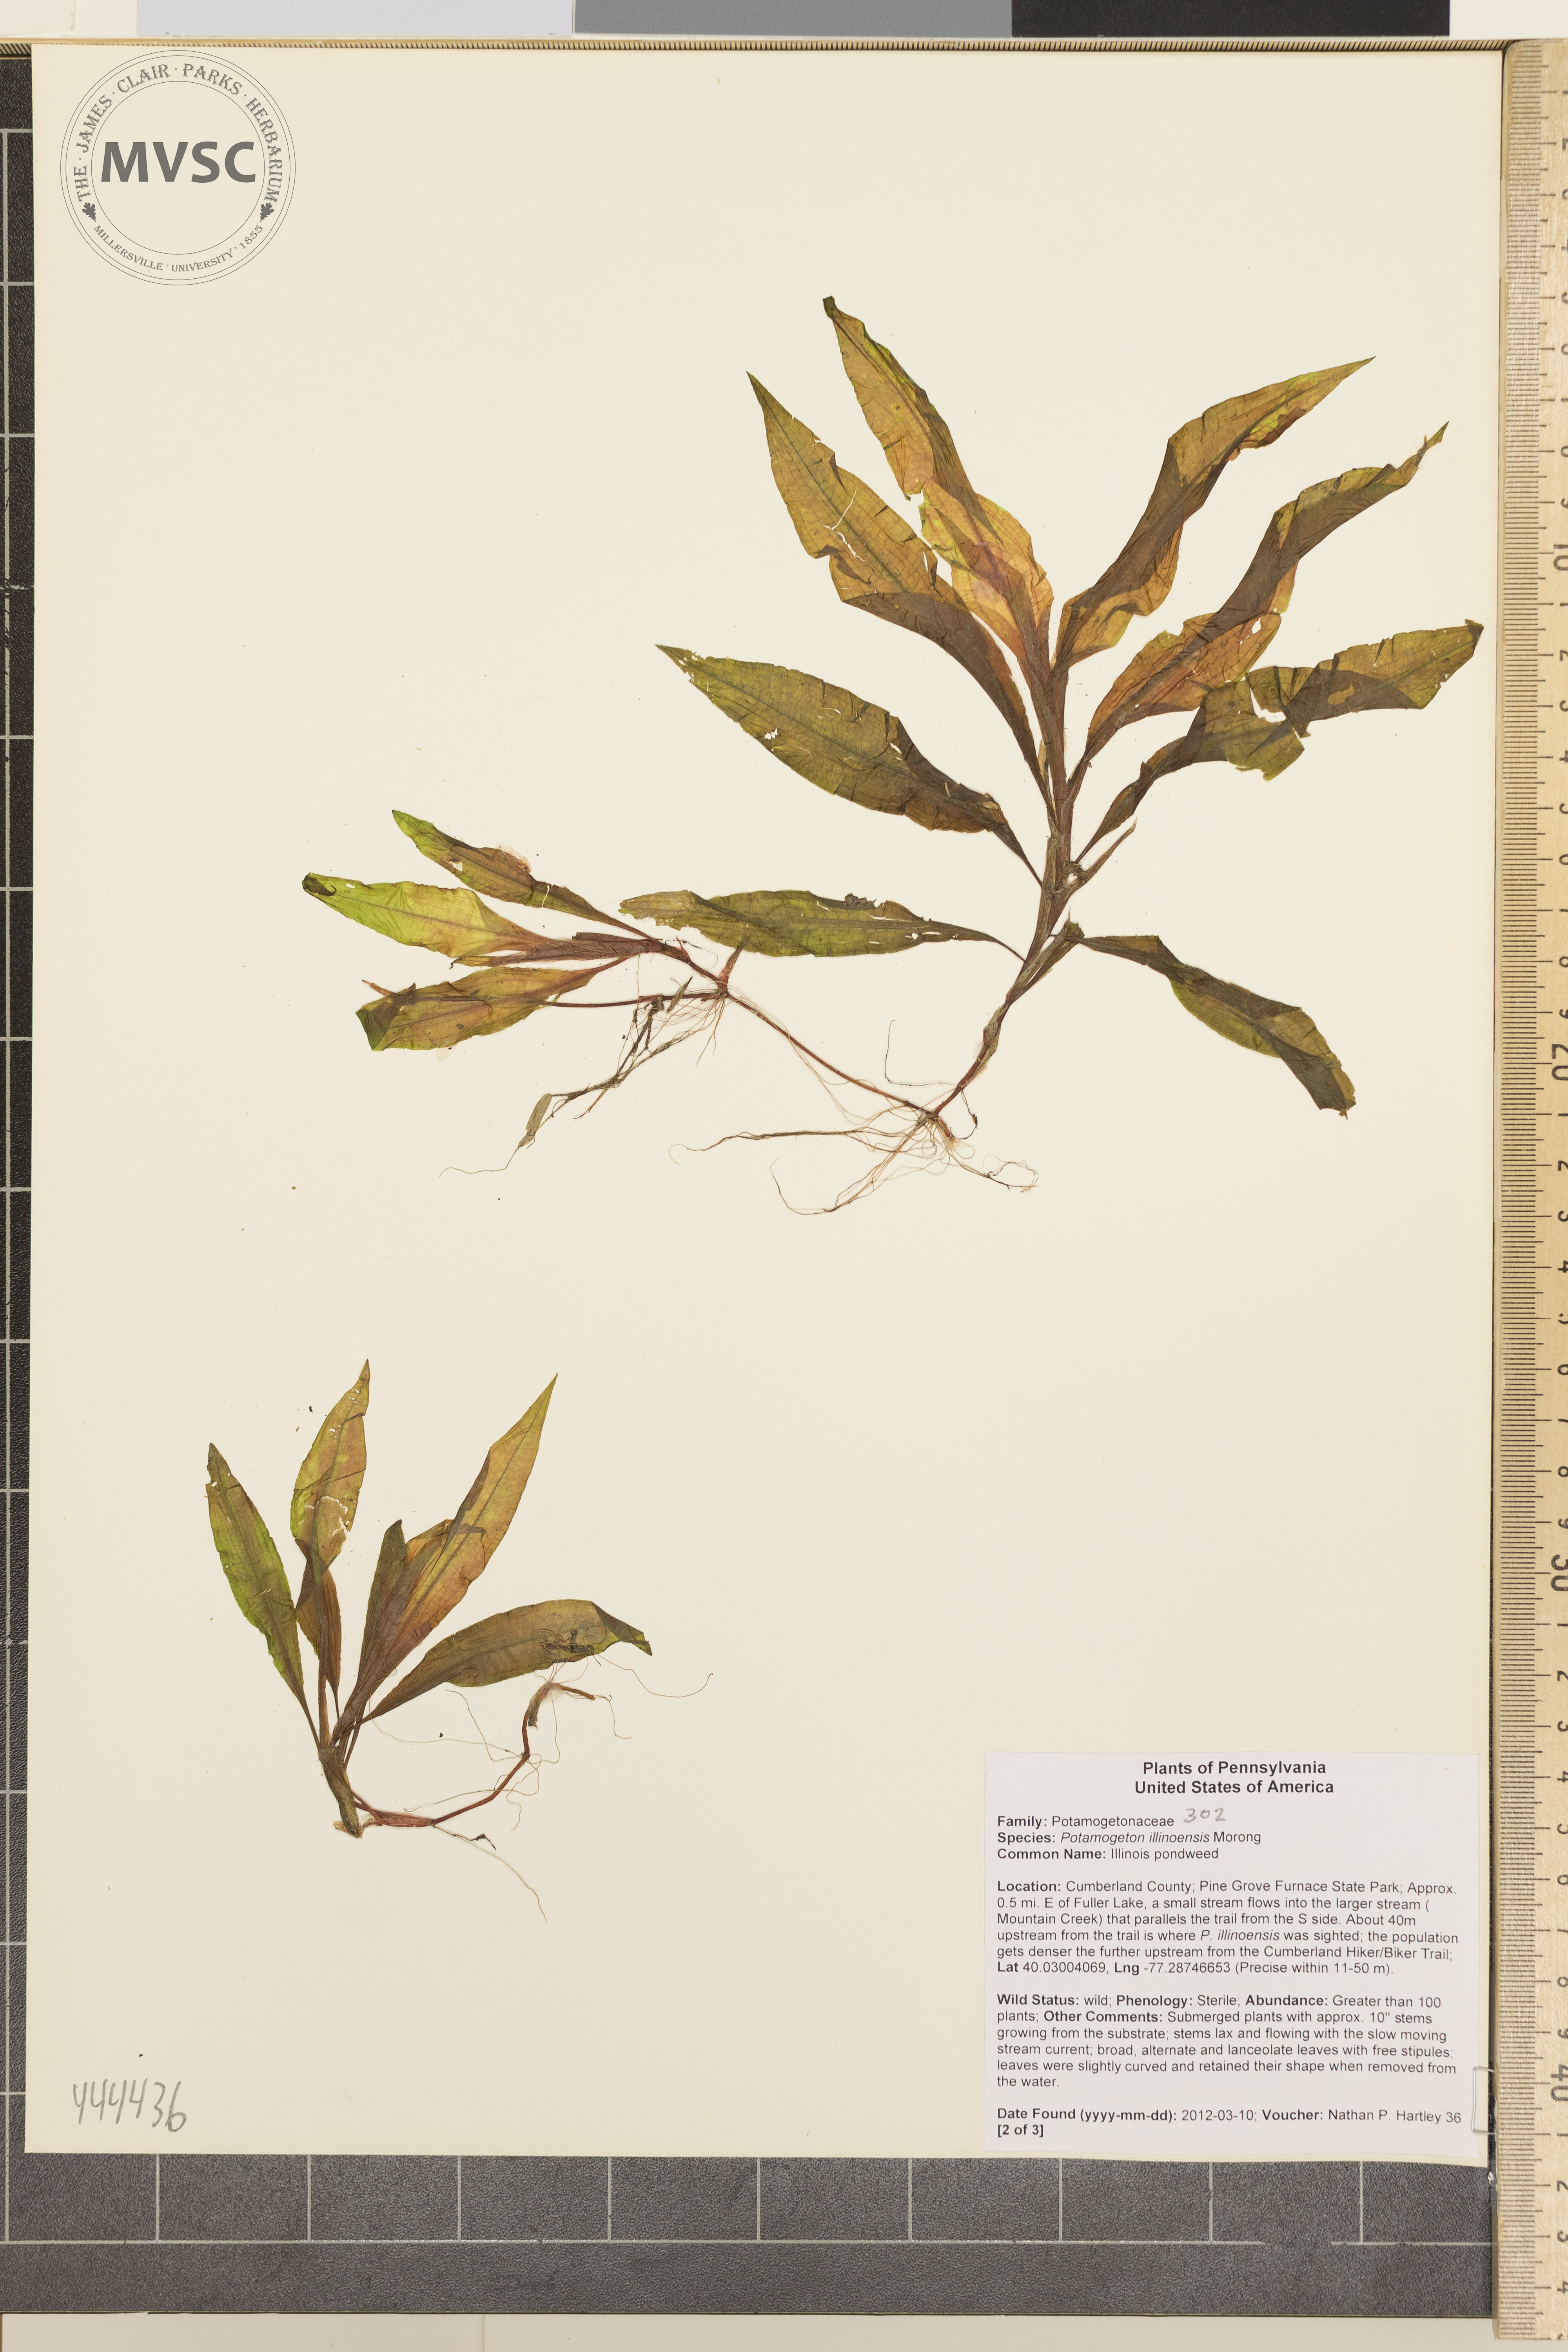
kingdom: Plantae
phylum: Tracheophyta
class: Liliopsida
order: Alismatales
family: Potamogetonaceae
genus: Potamogeton
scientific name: Potamogeton illinoensis
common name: Illinois pondweed
